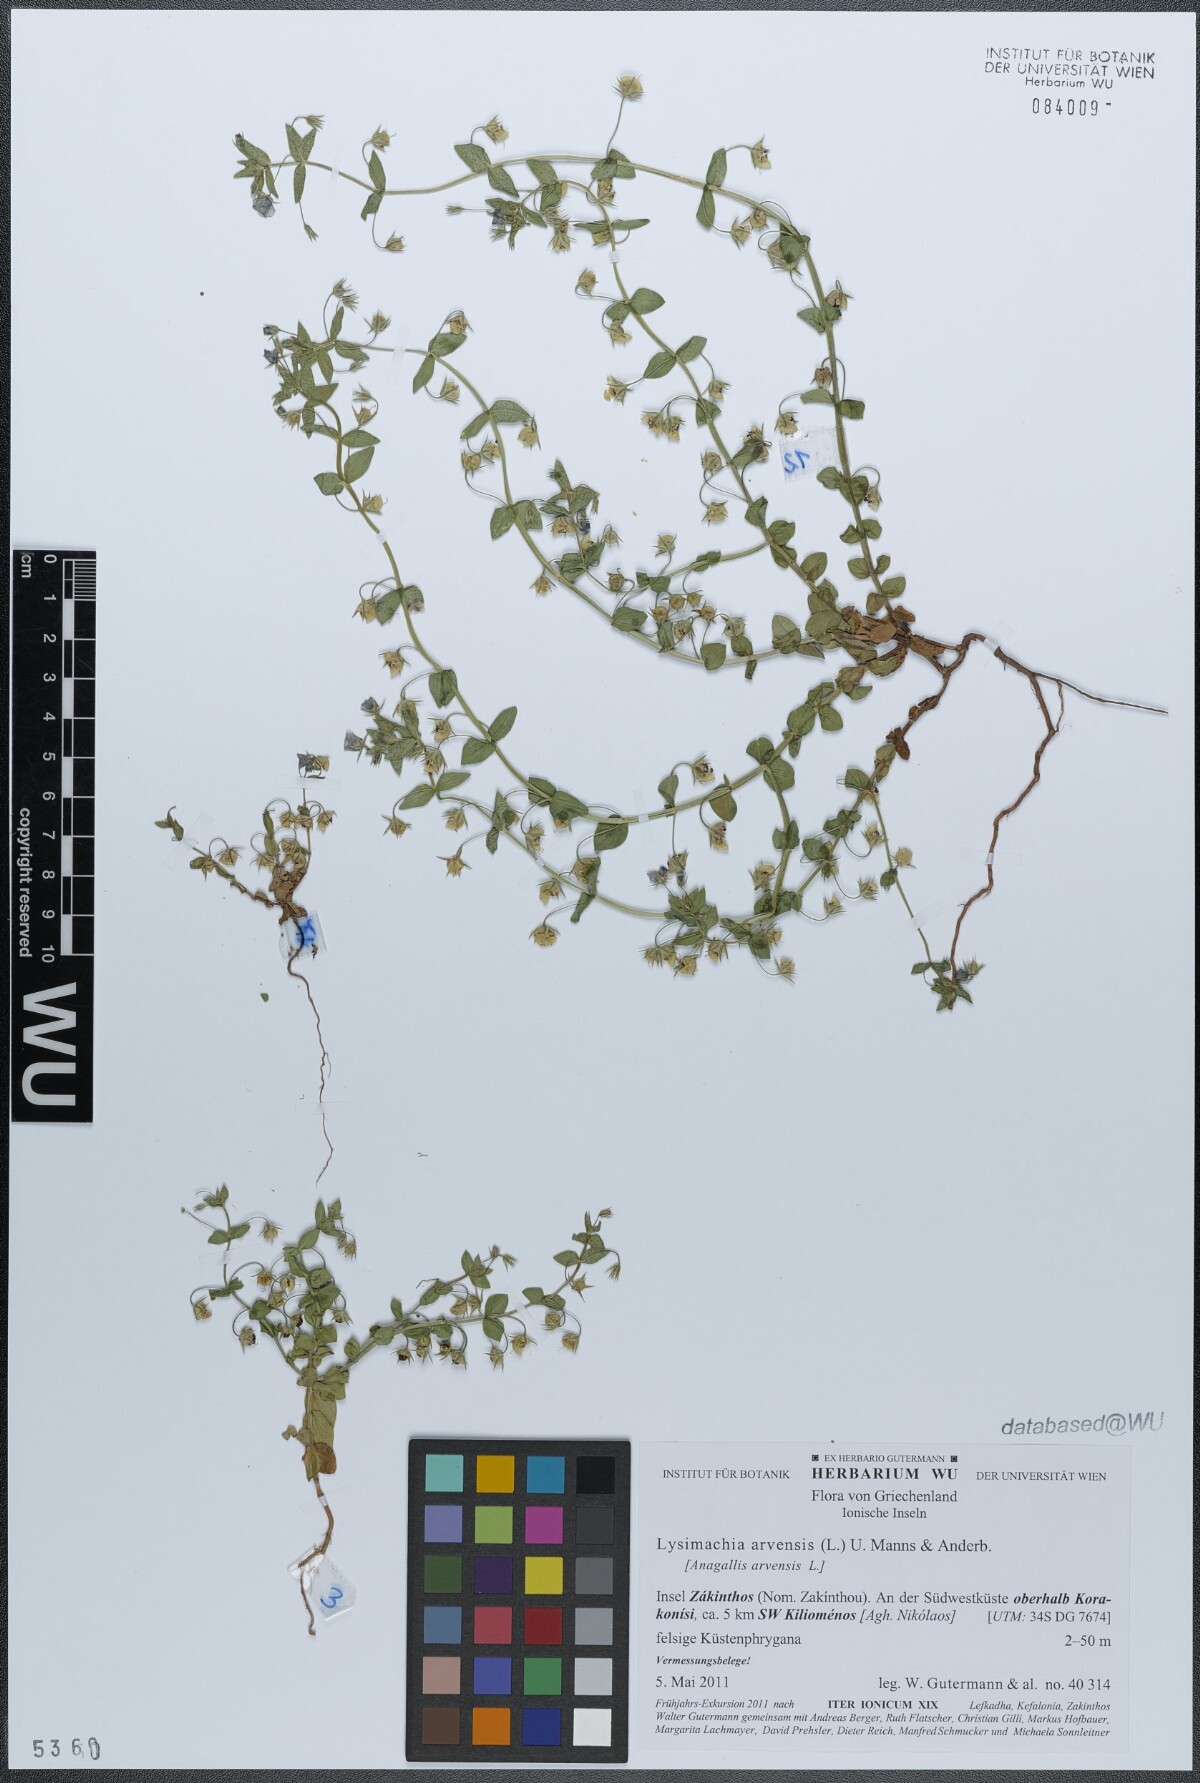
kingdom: Plantae
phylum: Tracheophyta
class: Magnoliopsida
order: Ericales
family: Primulaceae
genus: Lysimachia
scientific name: Lysimachia arvensis
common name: Scarlet pimpernel
